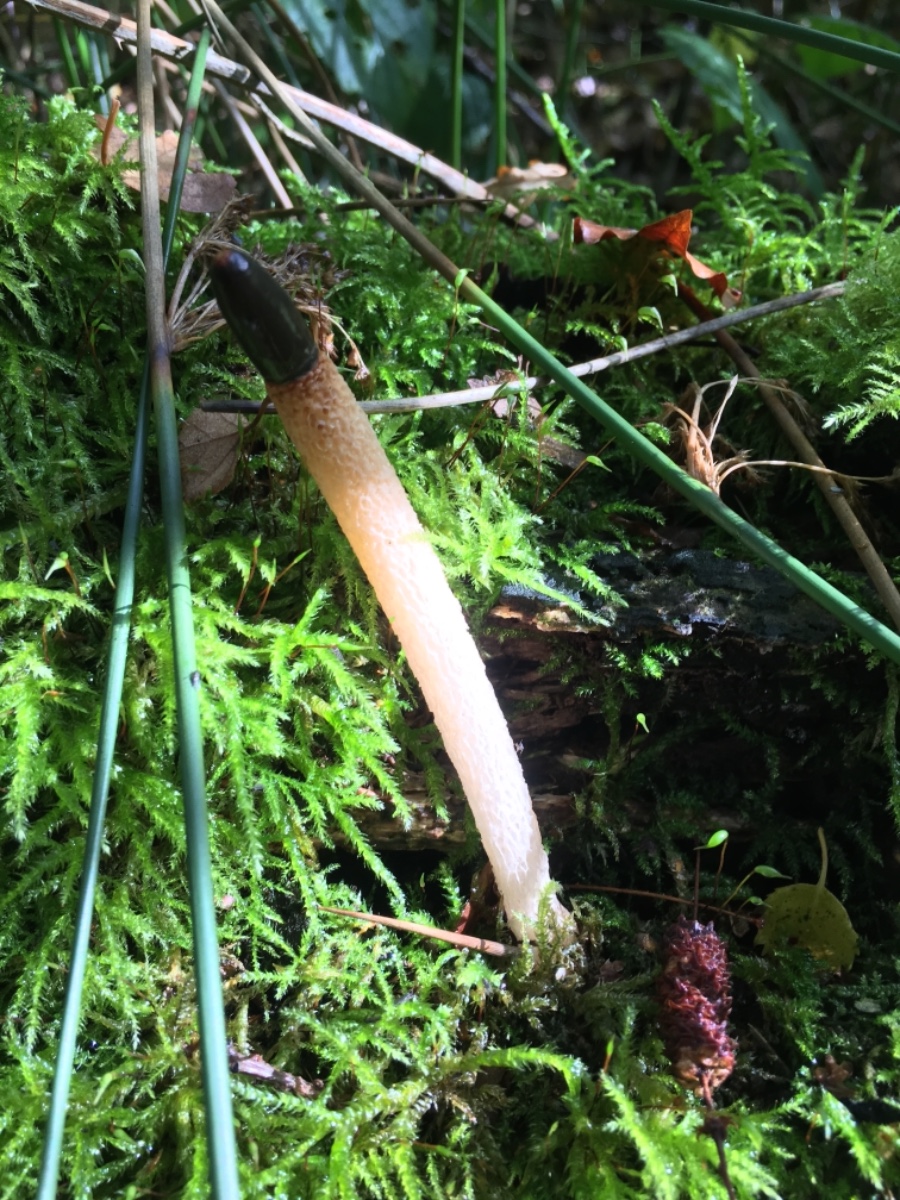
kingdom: Fungi
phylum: Basidiomycota
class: Agaricomycetes
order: Phallales
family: Phallaceae
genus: Mutinus
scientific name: Mutinus caninus
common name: hunde-stinksvamp
